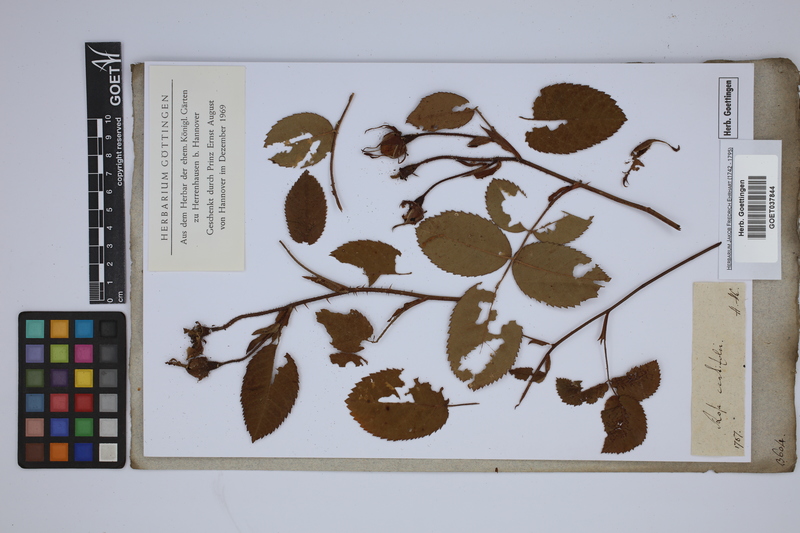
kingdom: Plantae
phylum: Tracheophyta
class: Magnoliopsida
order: Rosales
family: Rosaceae
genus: Rosa
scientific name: Rosa centifolia
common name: Cabbage rose
